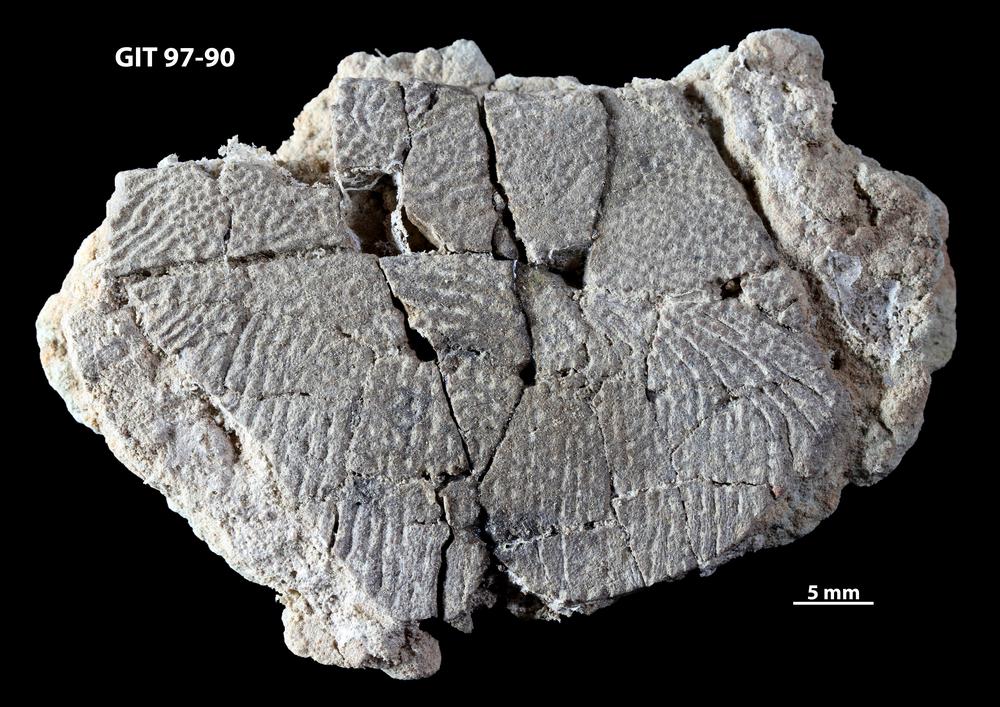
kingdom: Animalia
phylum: Chordata
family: Holonematidae
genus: Holonema
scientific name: Holonema
